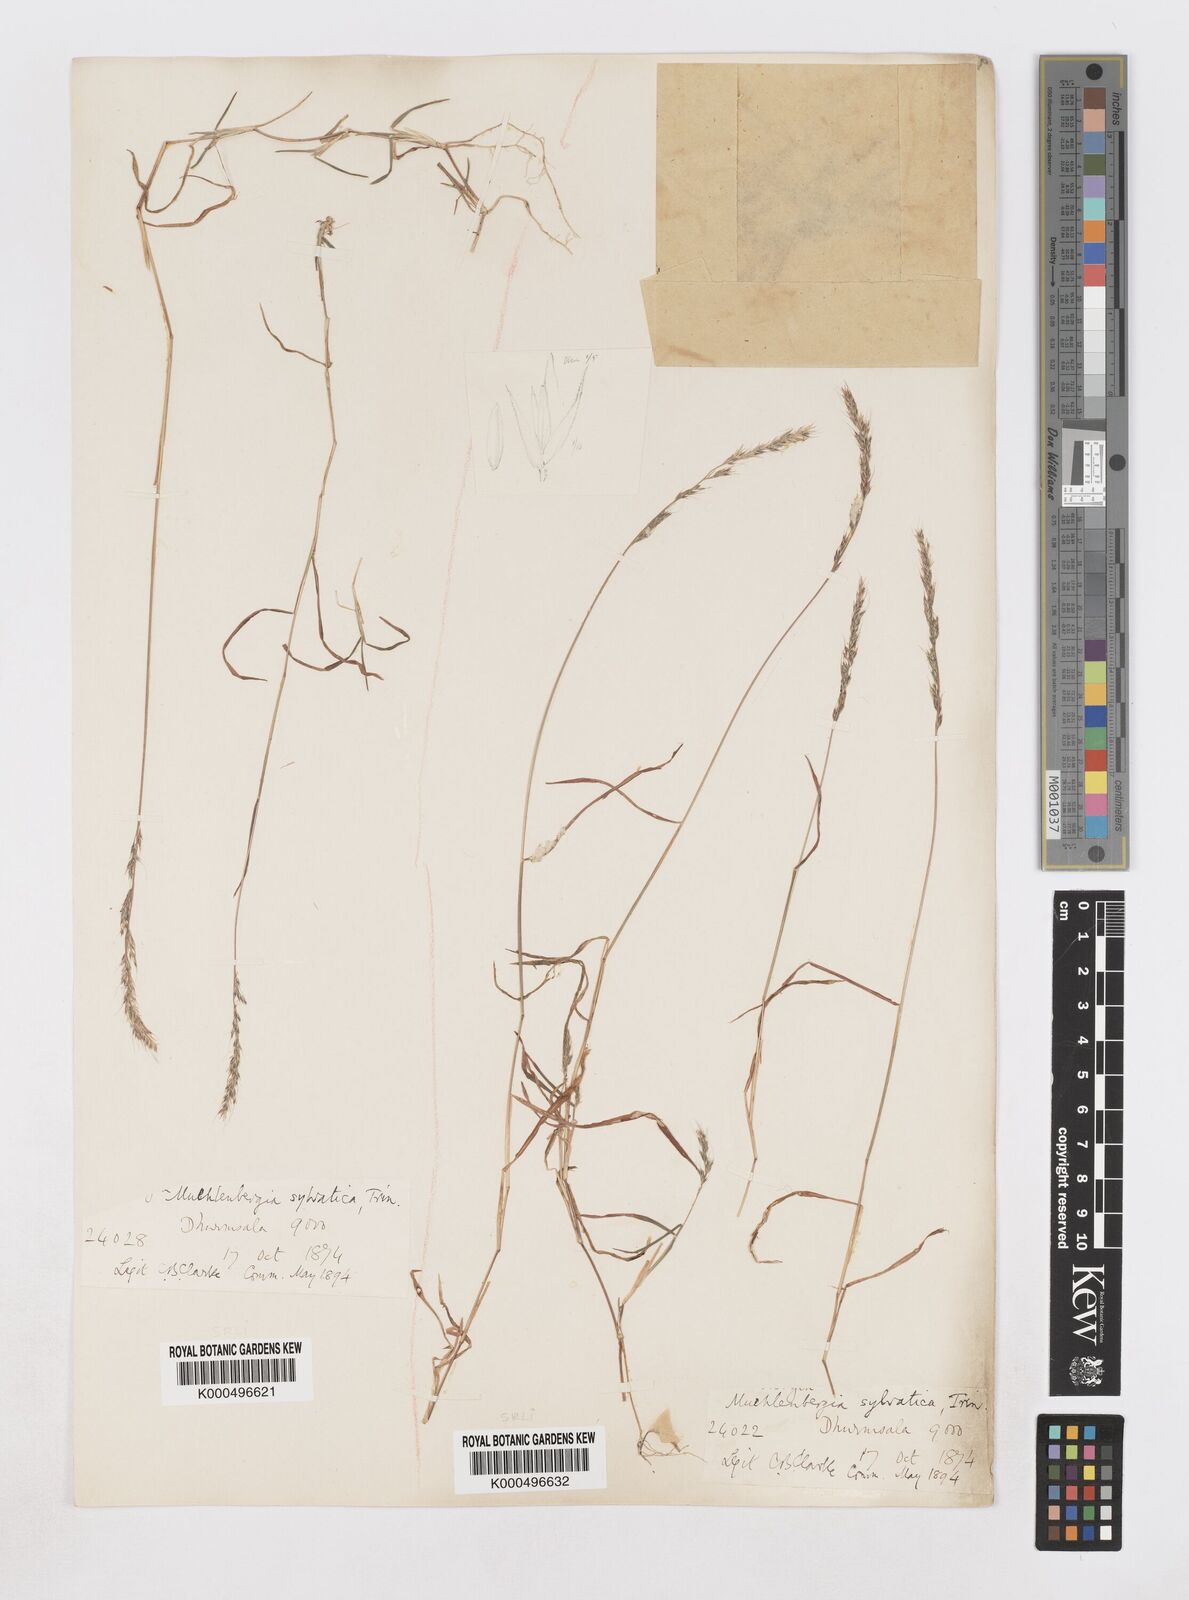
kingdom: Plantae
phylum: Tracheophyta
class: Liliopsida
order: Poales
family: Poaceae
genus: Muhlenbergia
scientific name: Muhlenbergia duthieana
